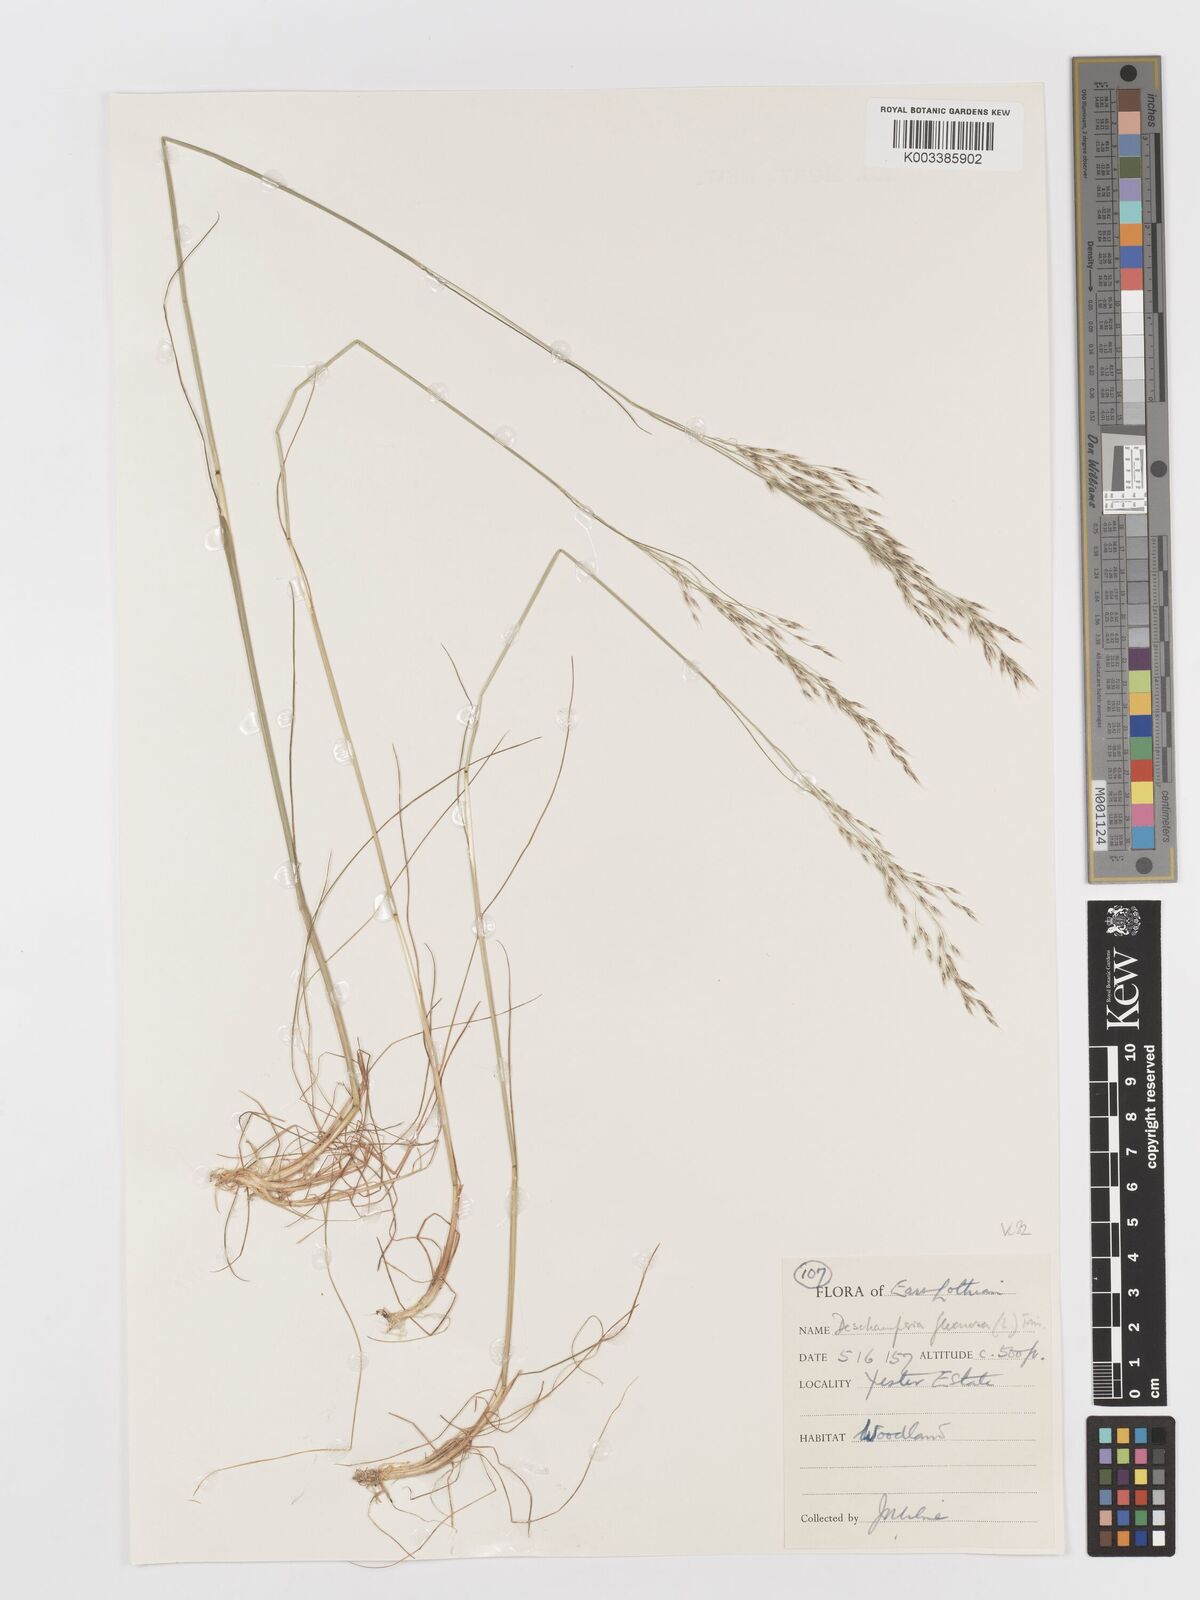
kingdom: Plantae
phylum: Tracheophyta
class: Liliopsida
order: Poales
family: Poaceae
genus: Avenella
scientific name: Avenella flexuosa
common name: Wavy hairgrass
